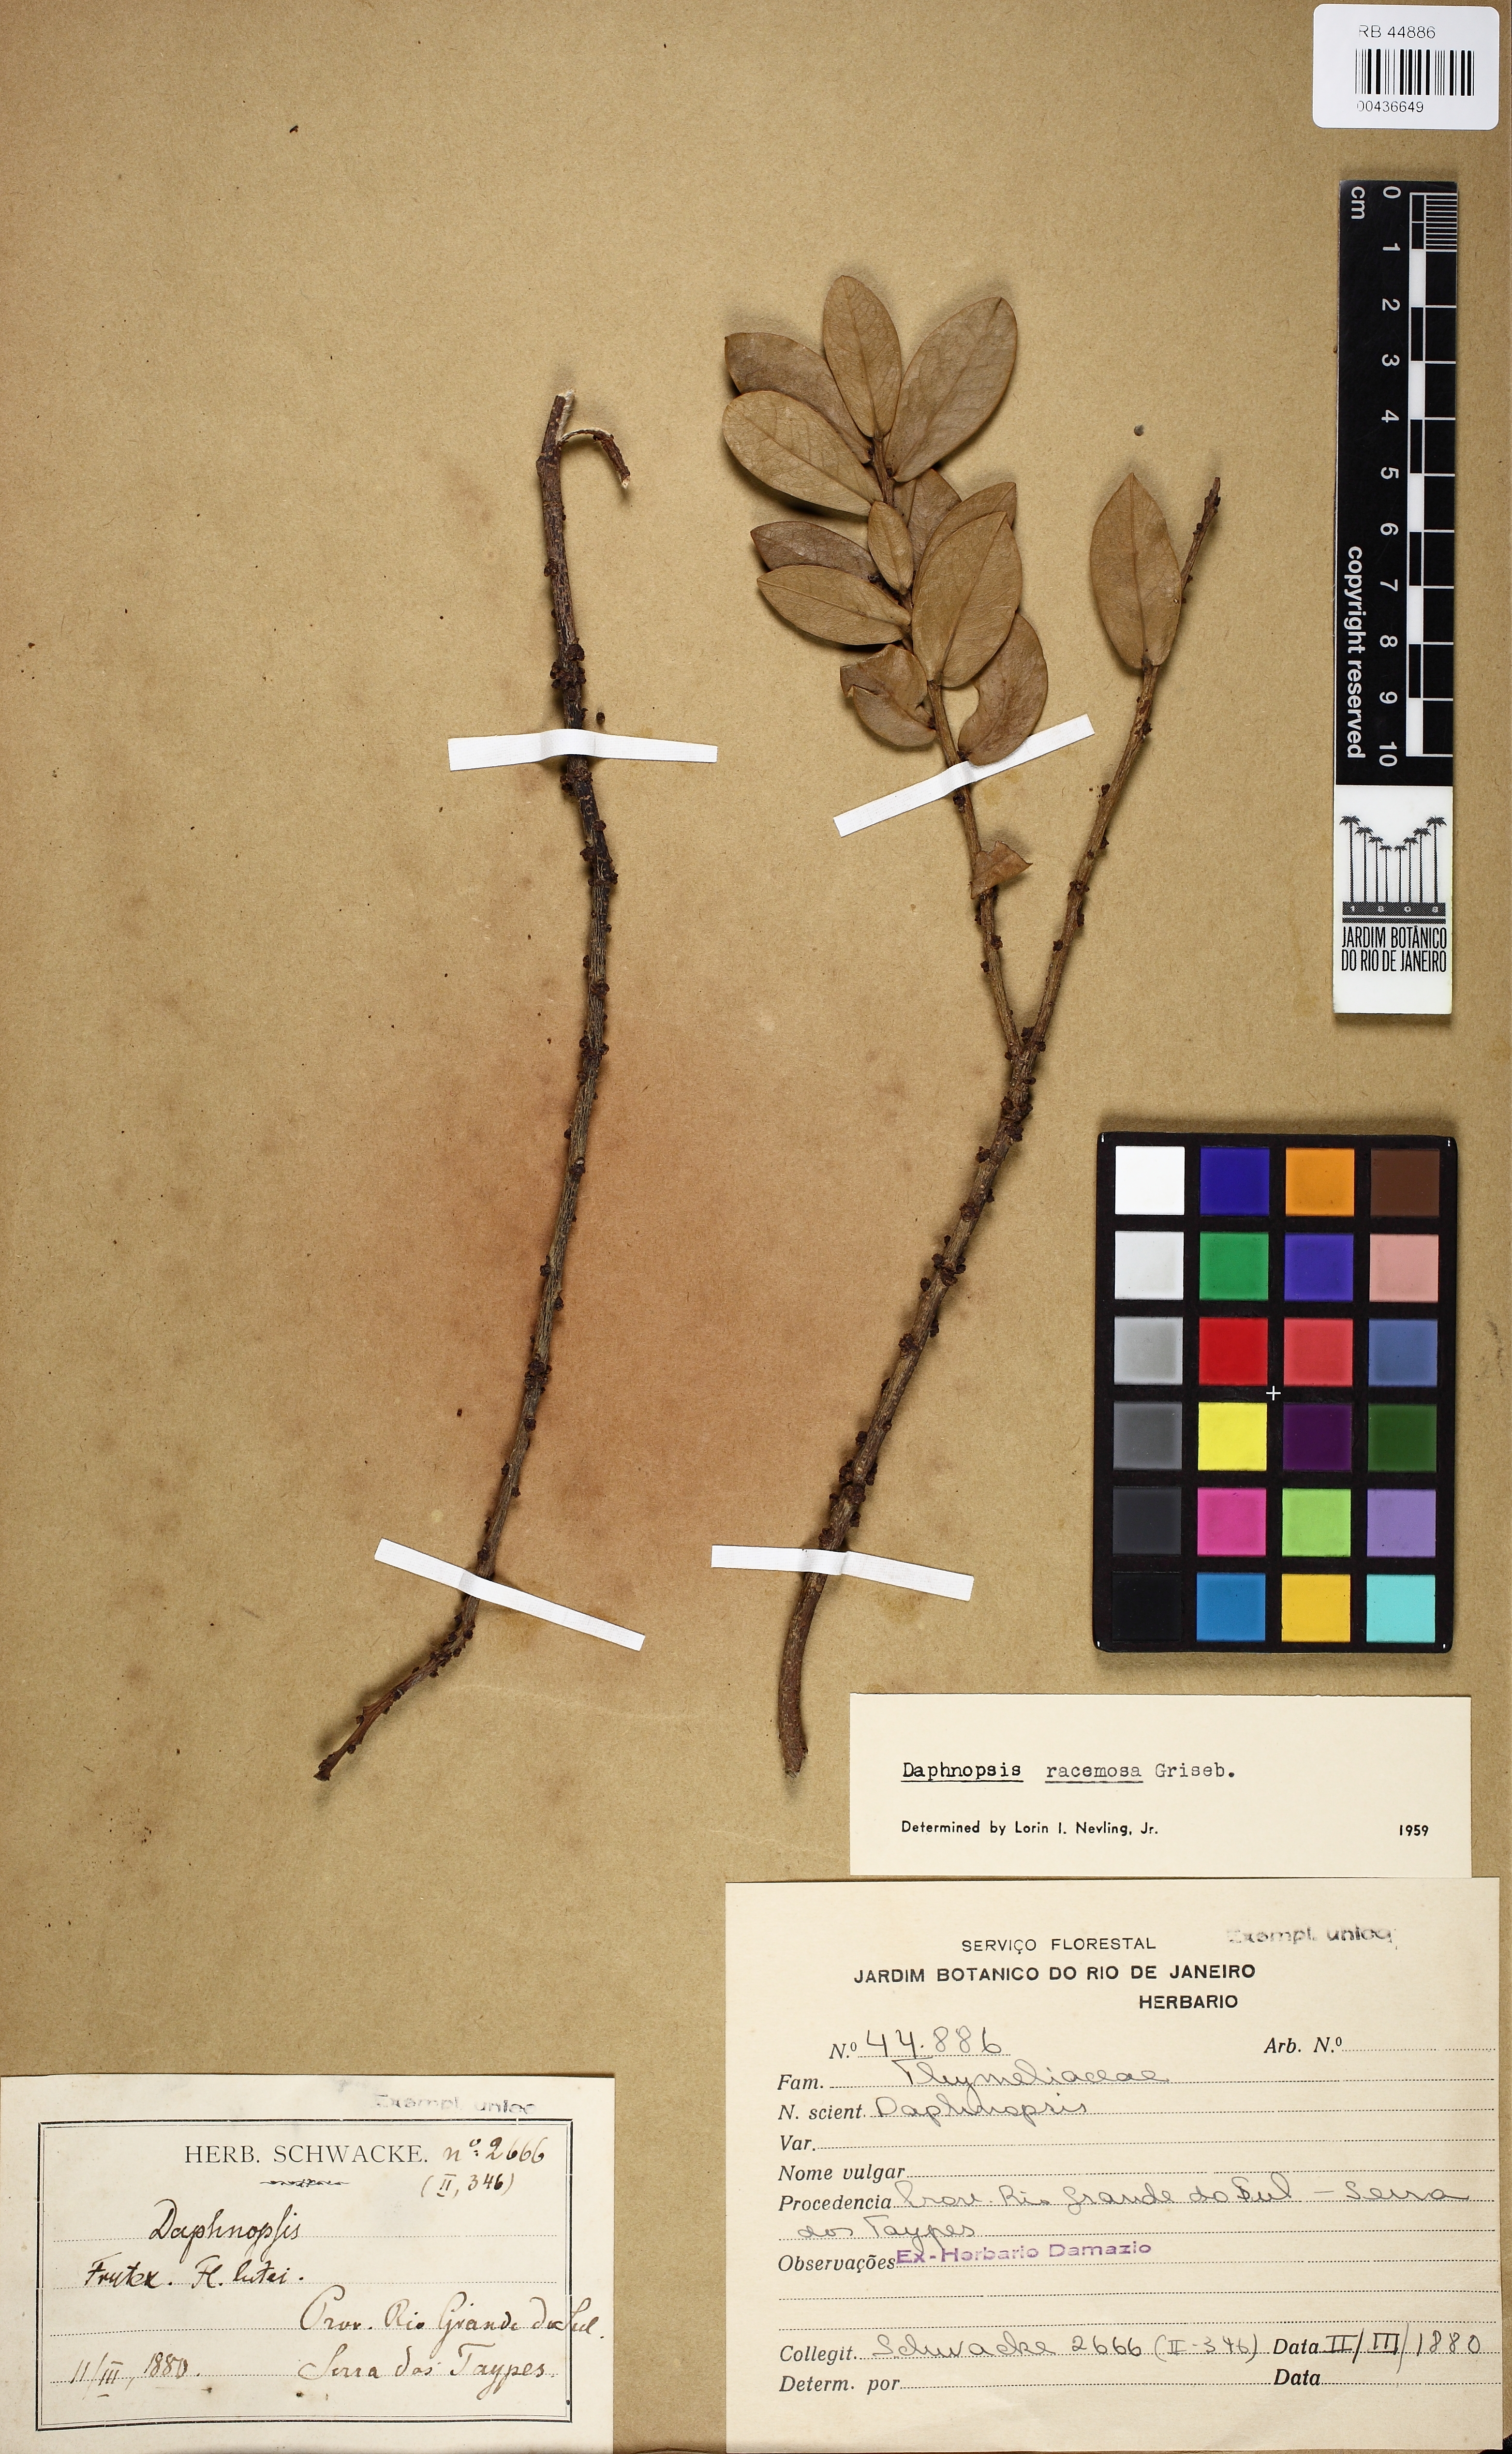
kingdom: Plantae
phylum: Tracheophyta
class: Magnoliopsida
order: Malvales
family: Thymelaeaceae
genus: Daphnopsis
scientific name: Daphnopsis racemosa
